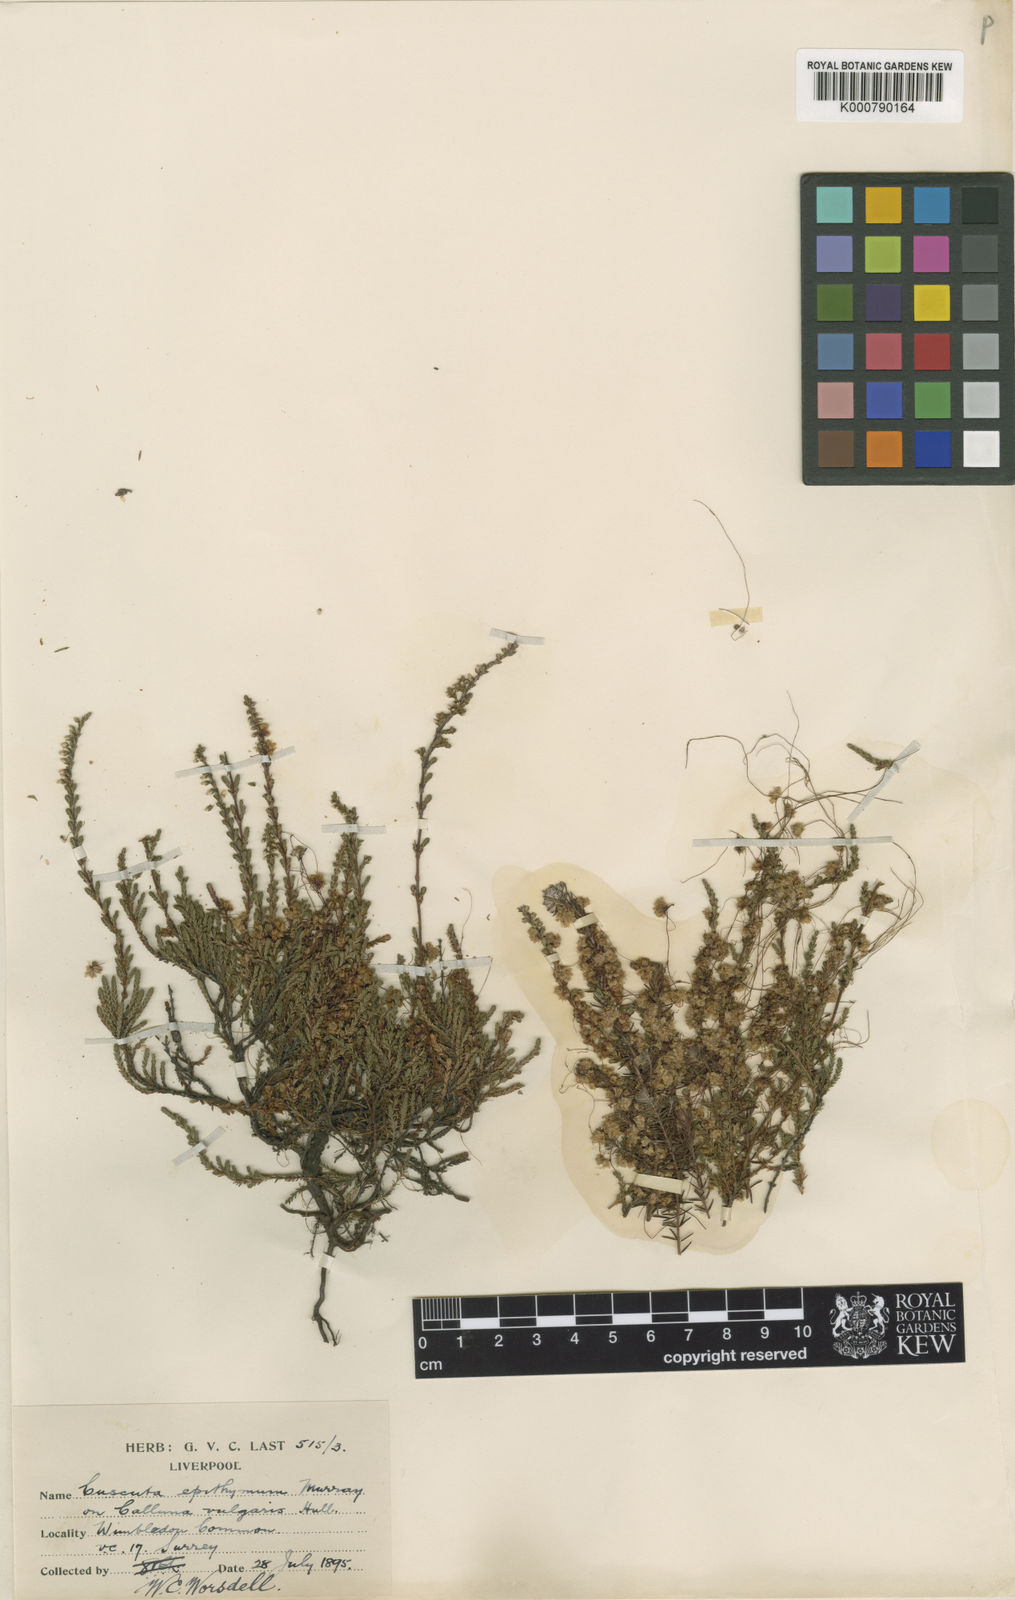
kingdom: Plantae
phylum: Tracheophyta
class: Magnoliopsida
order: Solanales
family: Convolvulaceae
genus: Cuscuta
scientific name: Cuscuta epithymum
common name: Clover dodder
